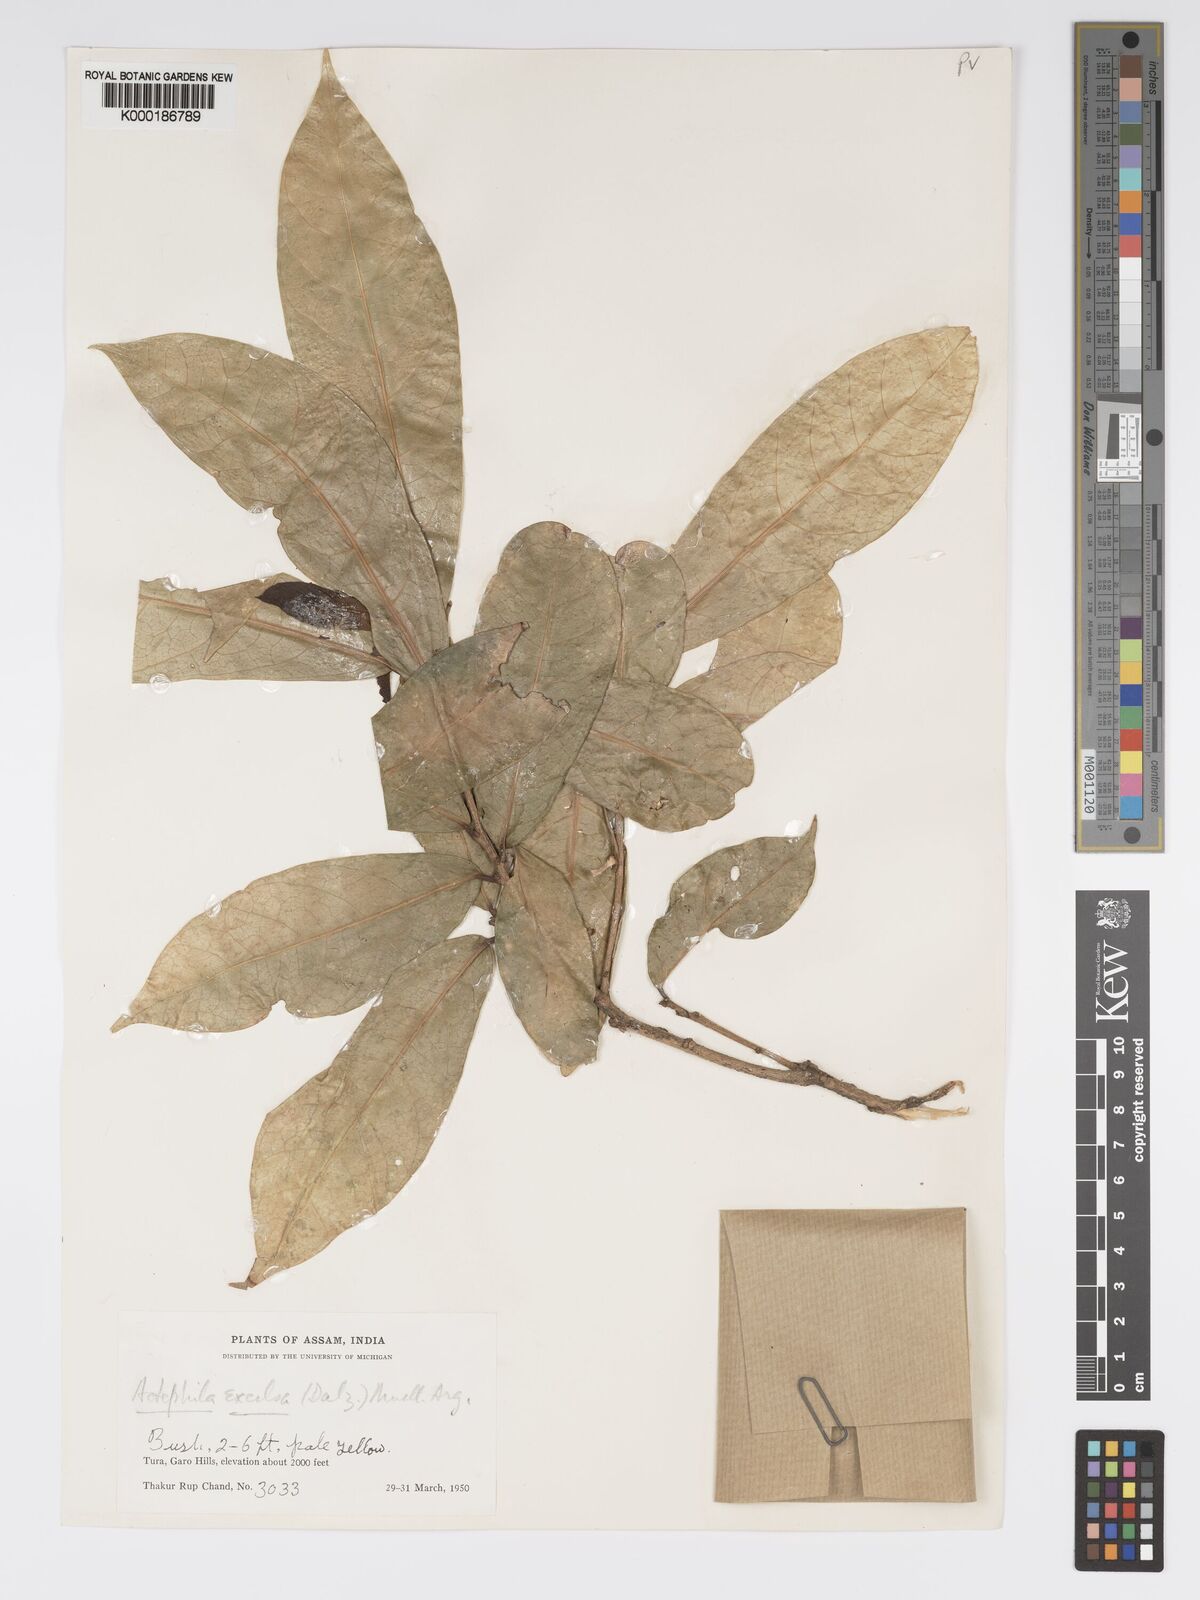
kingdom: Plantae
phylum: Tracheophyta
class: Magnoliopsida
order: Malpighiales
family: Phyllanthaceae
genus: Actephila
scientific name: Actephila excelsa
